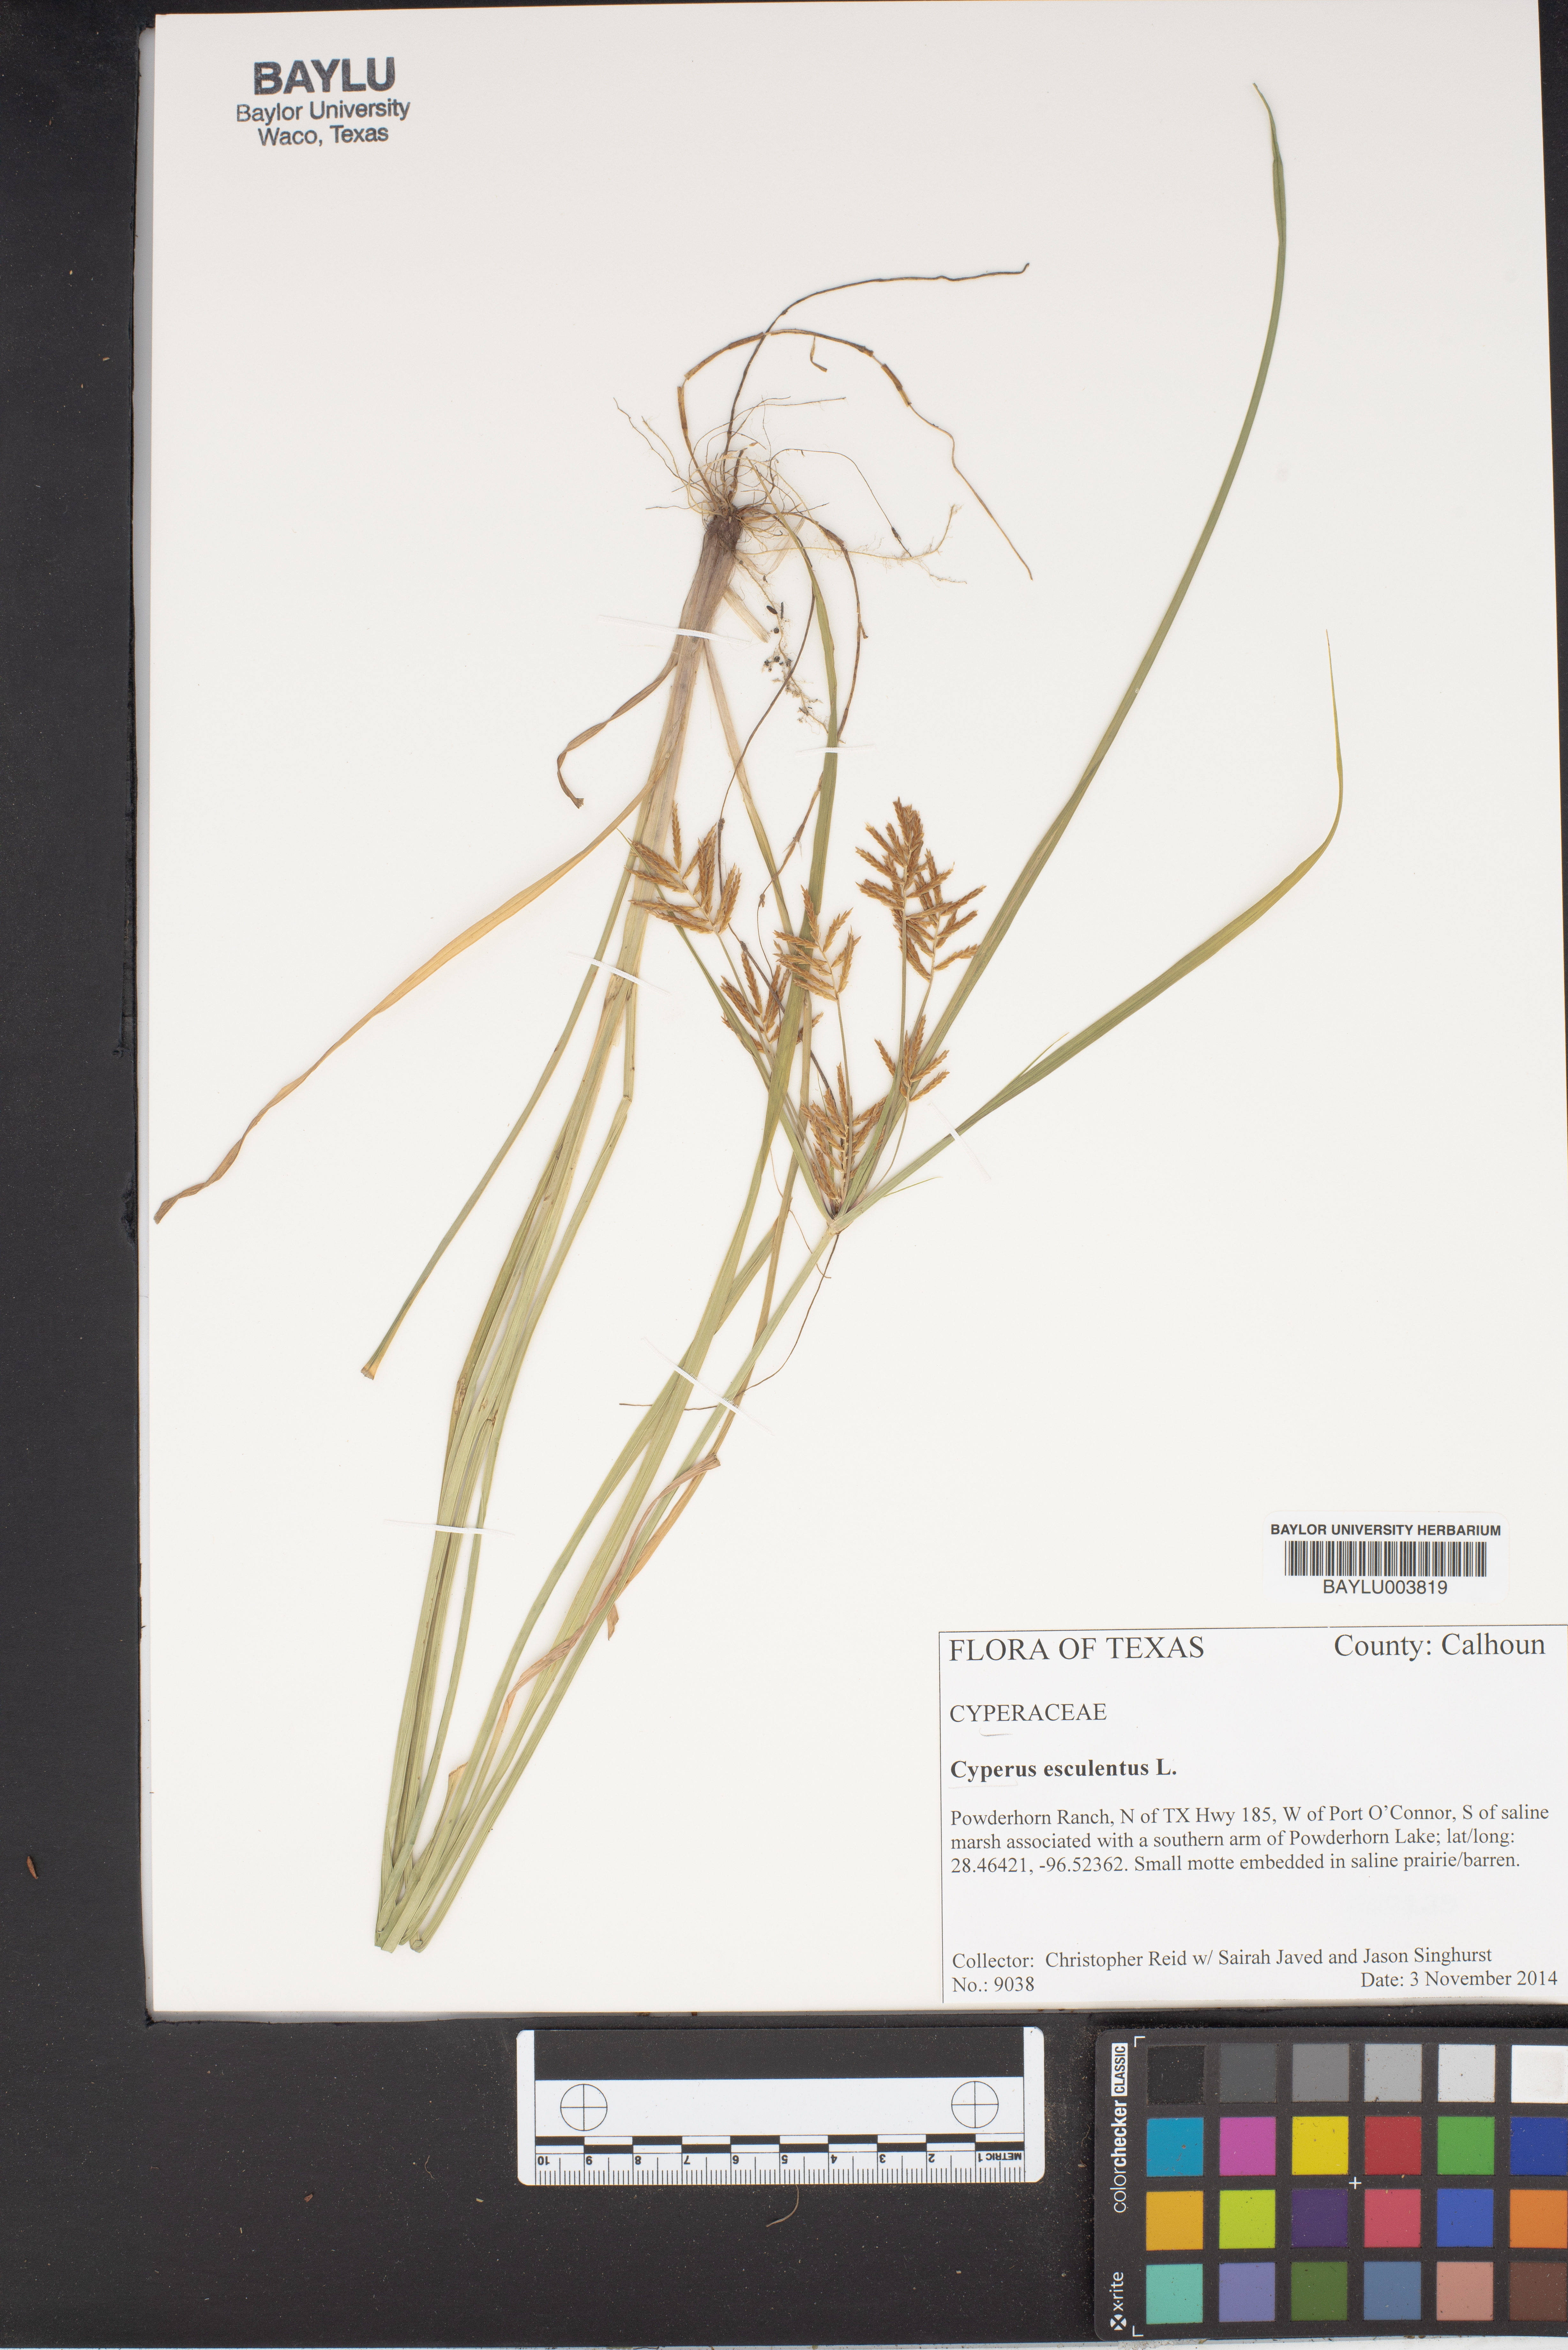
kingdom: Plantae
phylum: Tracheophyta
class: Liliopsida
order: Poales
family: Cyperaceae
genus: Cyperus
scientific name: Cyperus esculentus
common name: Yellow nutsedge
